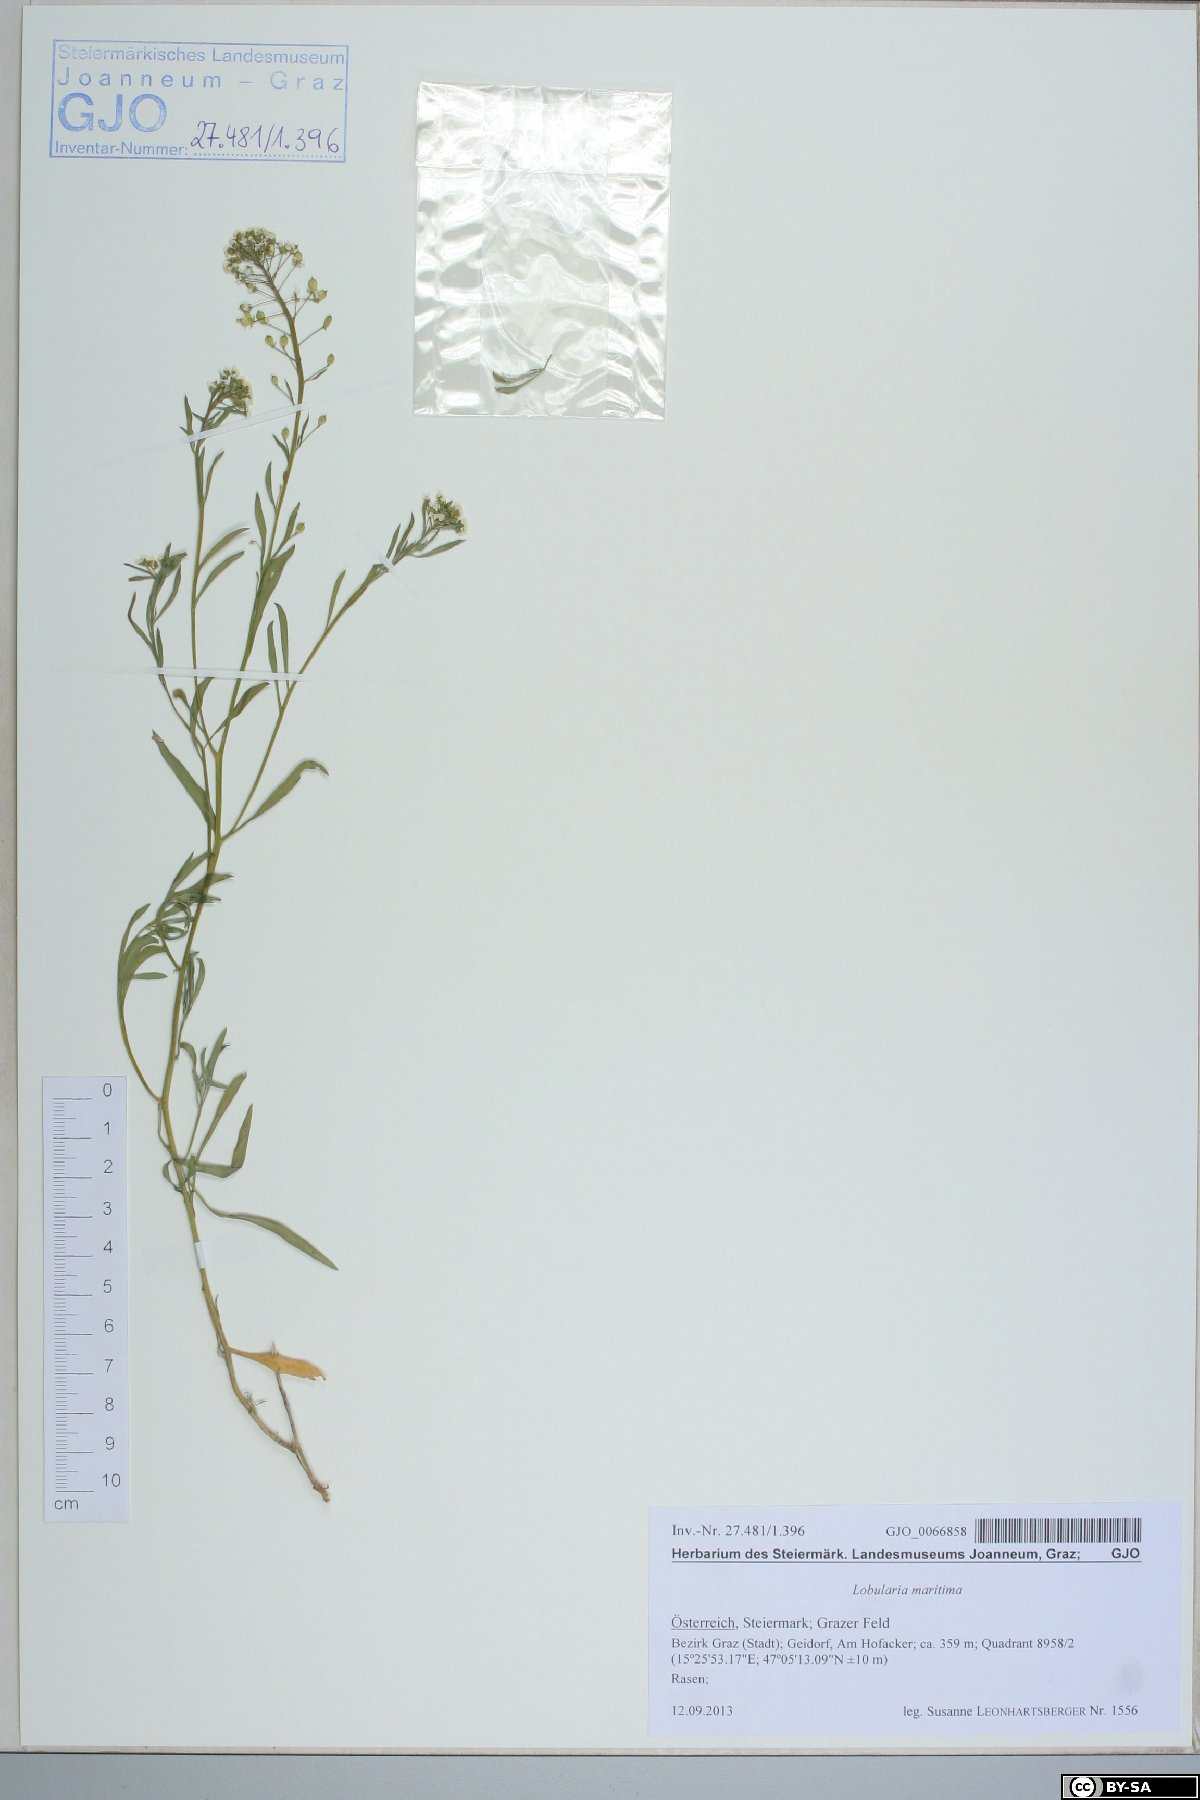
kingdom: Plantae
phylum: Tracheophyta
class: Magnoliopsida
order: Brassicales
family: Brassicaceae
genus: Lobularia
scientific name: Lobularia maritima
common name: Sweet alison
